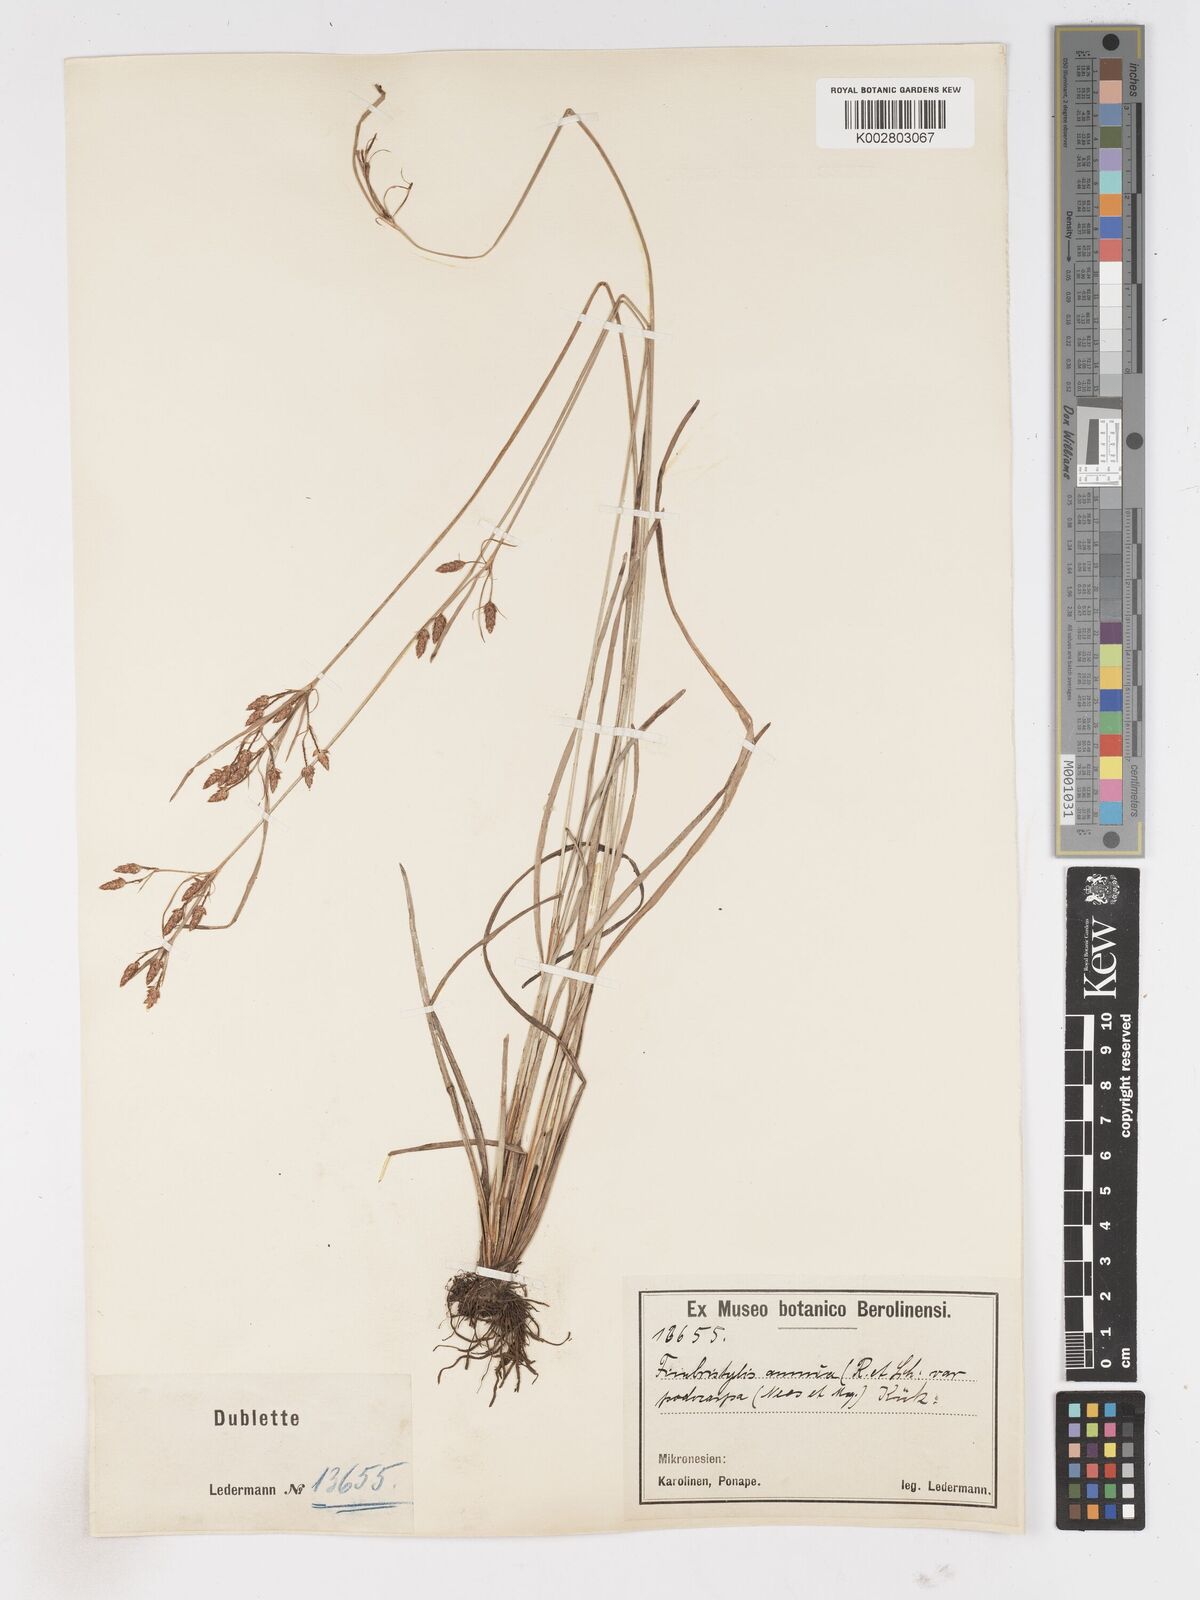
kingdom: Plantae
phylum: Tracheophyta
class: Liliopsida
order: Poales
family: Cyperaceae
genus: Fimbristylis
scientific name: Fimbristylis dichotoma
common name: Forked fimbry
